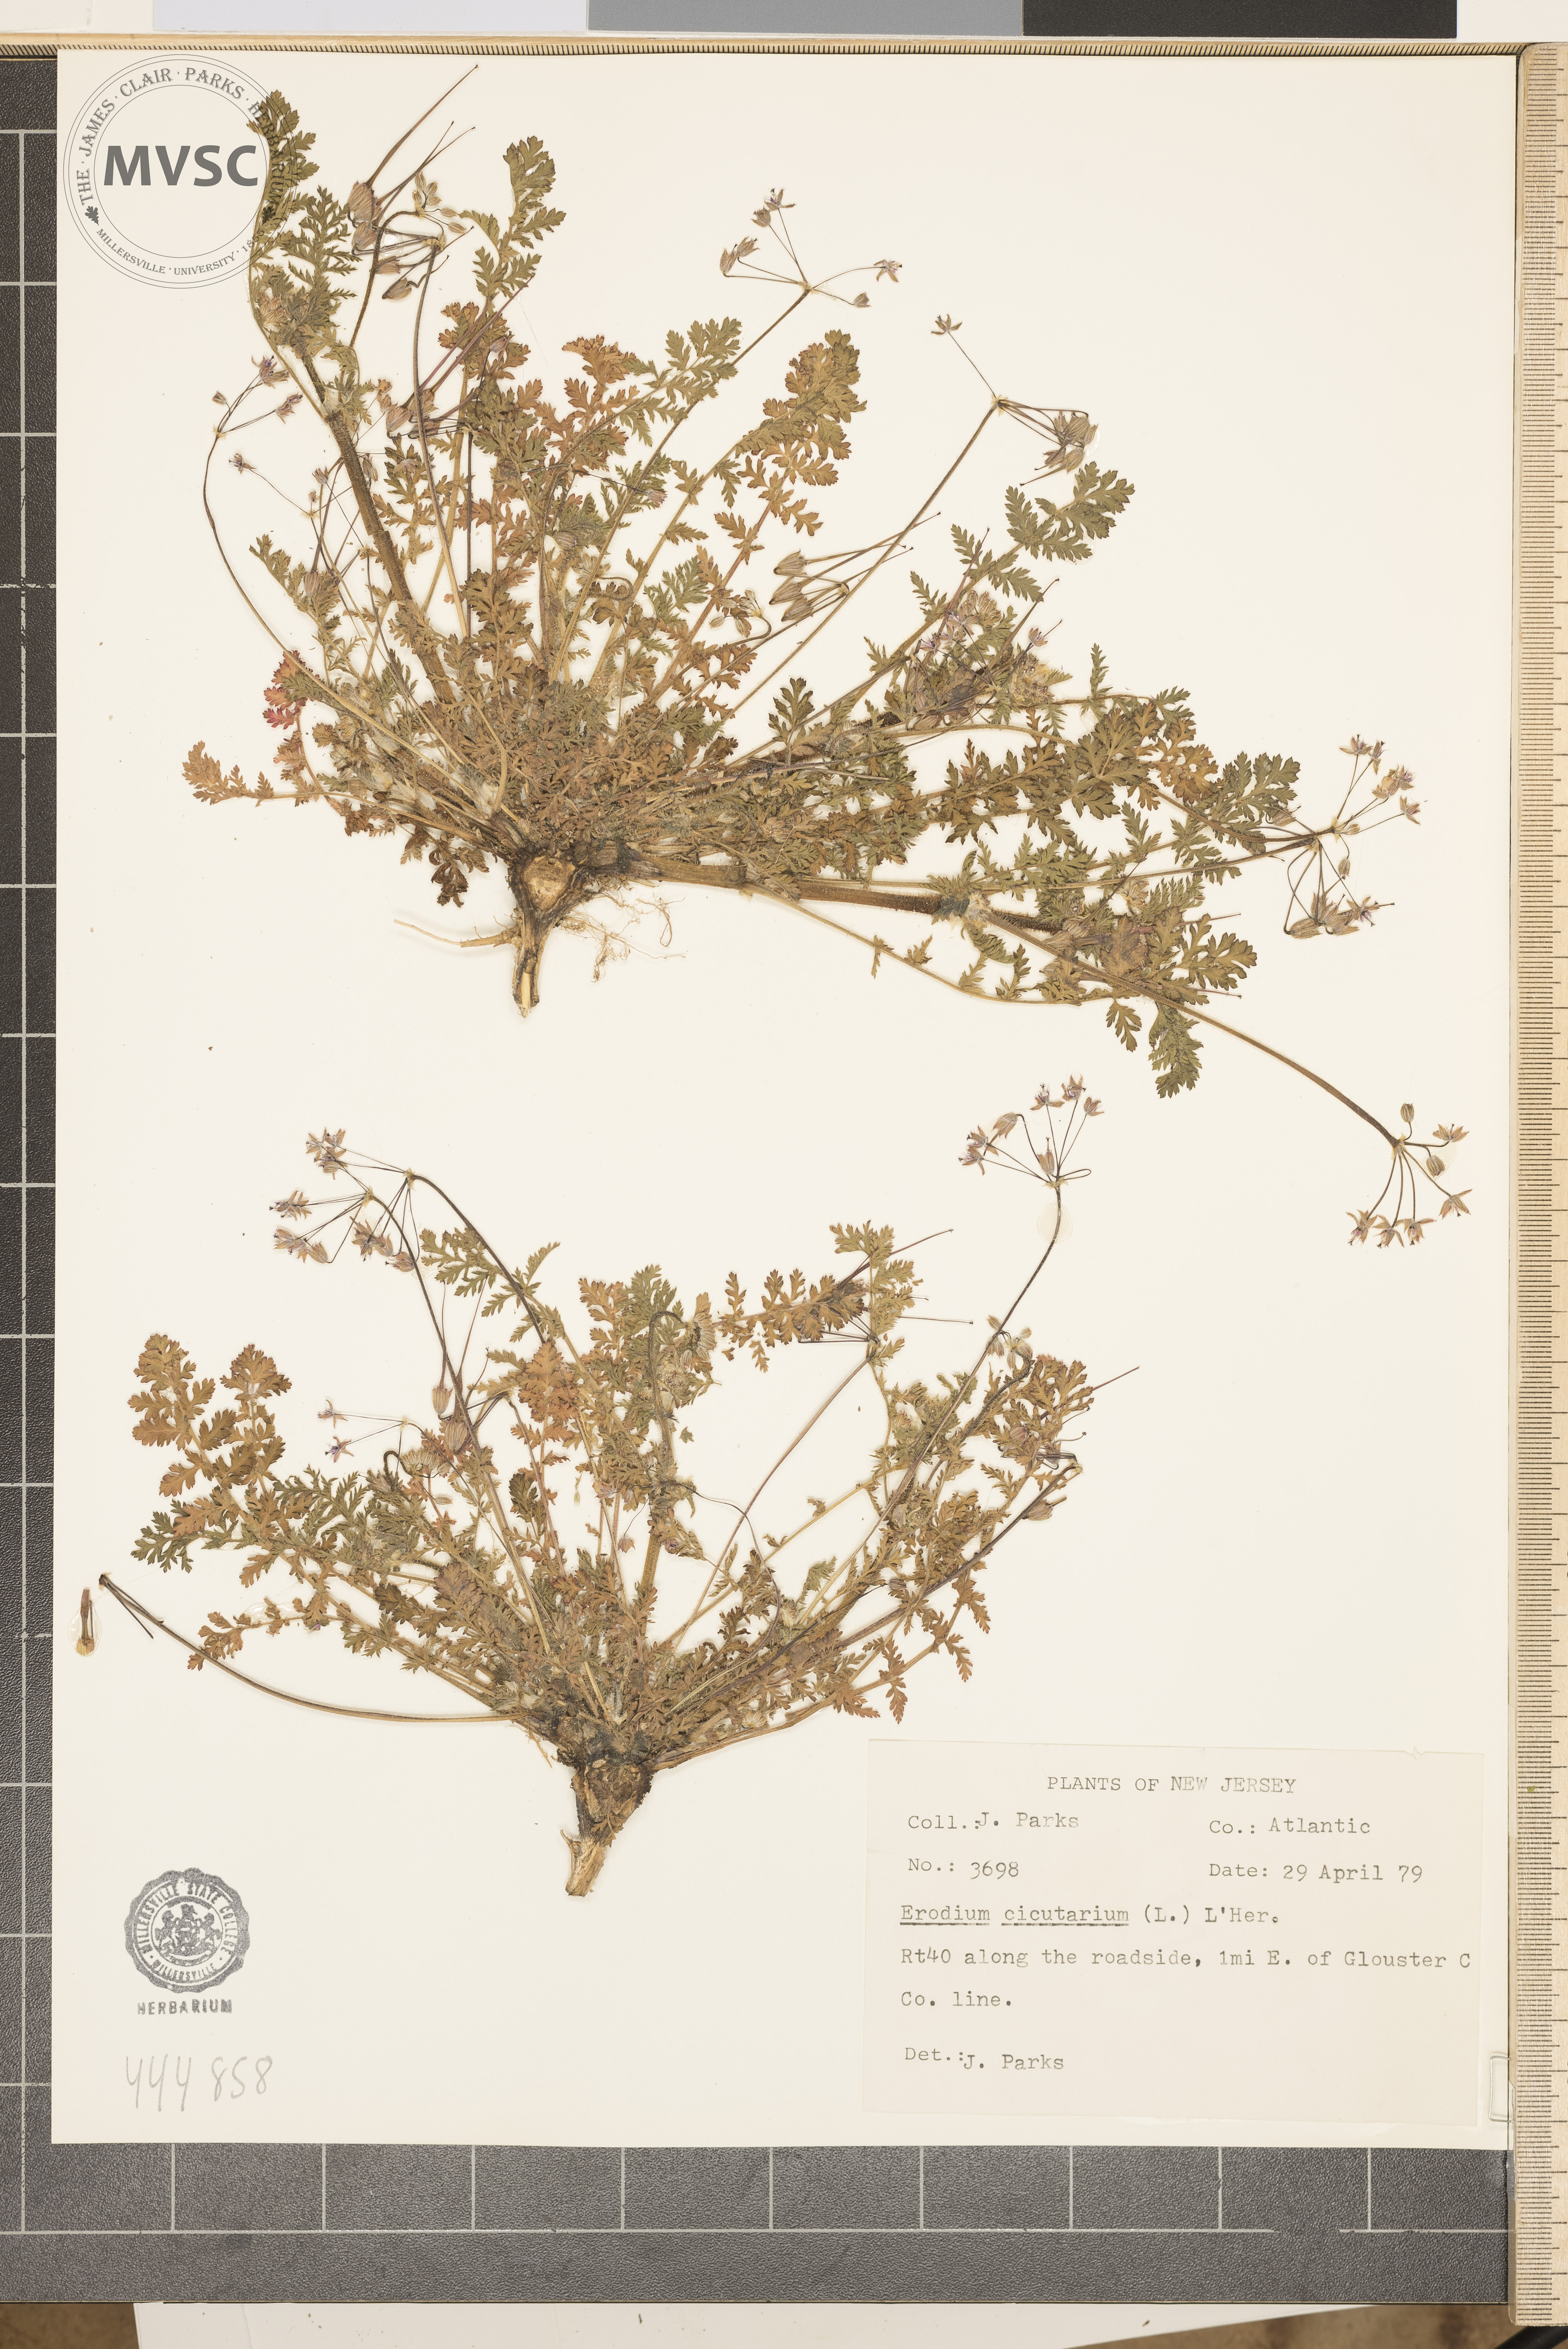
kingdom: Plantae
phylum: Tracheophyta
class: Magnoliopsida
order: Geraniales
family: Geraniaceae
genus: Erodium
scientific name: Erodium cicutarium
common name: Common stork's-bill
